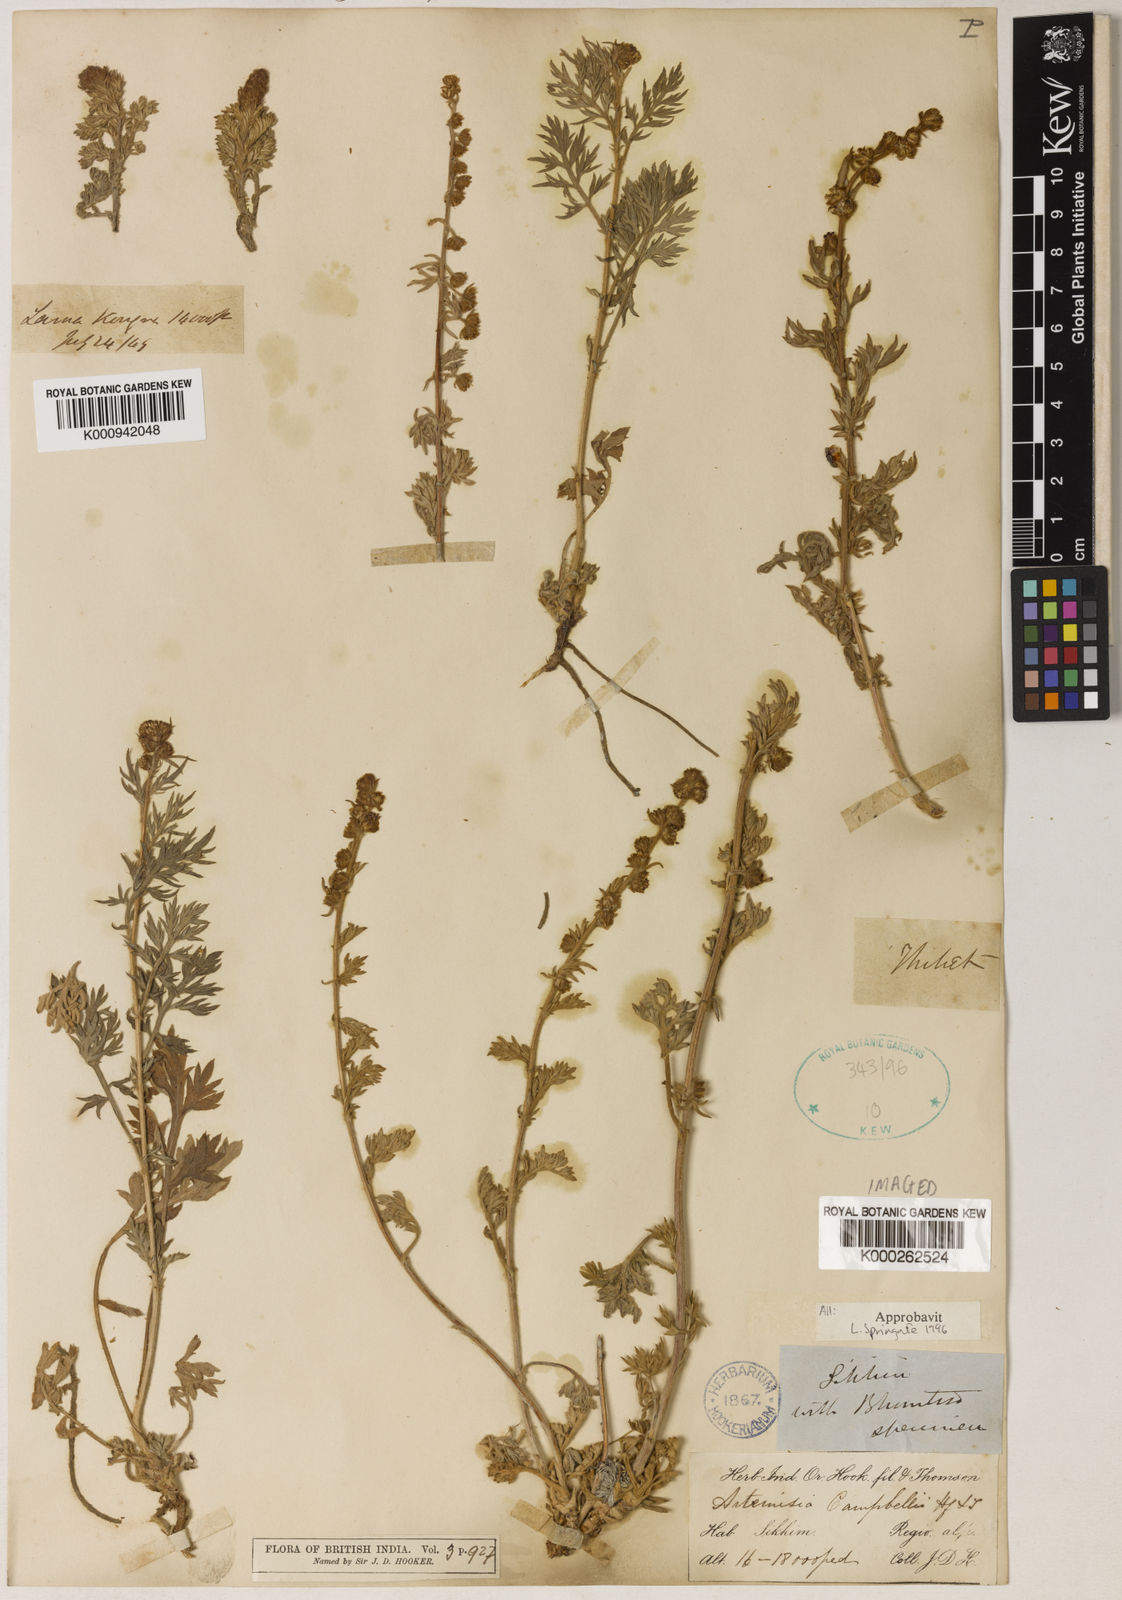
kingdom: Plantae
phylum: Tracheophyta
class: Magnoliopsida
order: Asterales
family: Asteraceae
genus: Artemisia
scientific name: Artemisia campbellii
